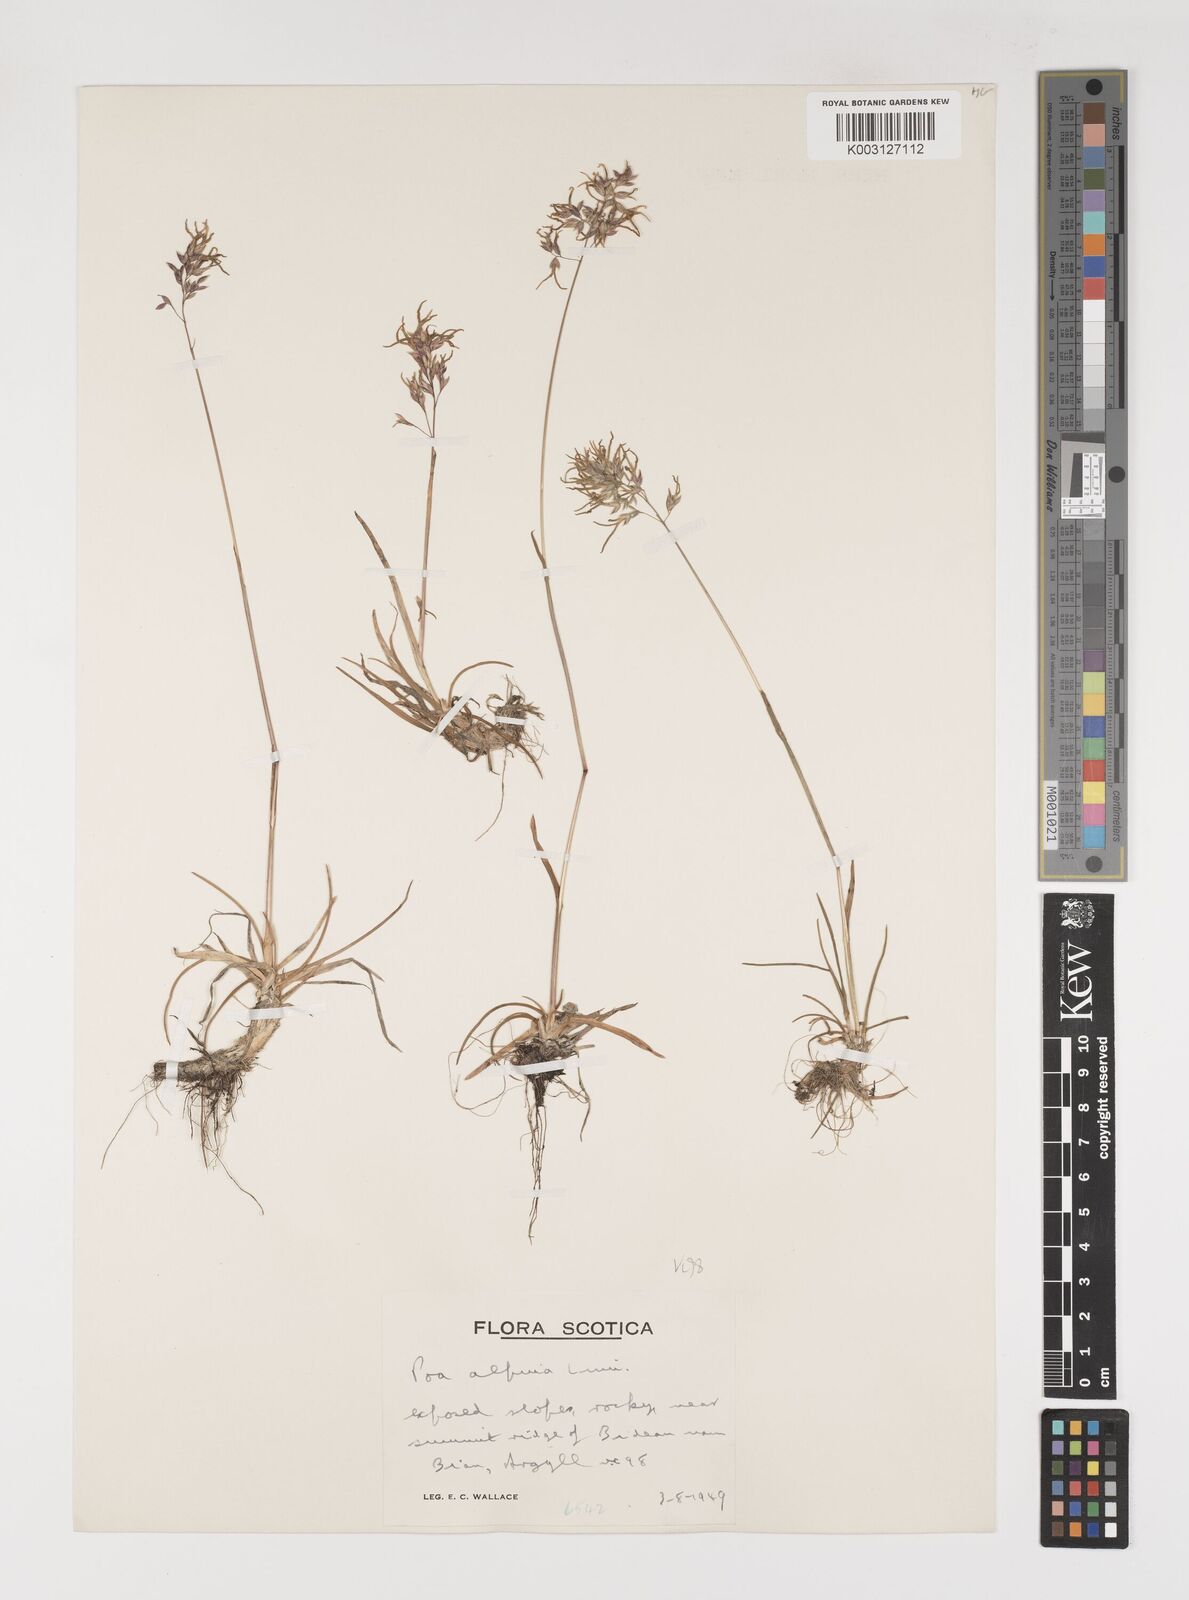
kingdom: Plantae
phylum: Tracheophyta
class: Liliopsida
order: Poales
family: Poaceae
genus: Poa
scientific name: Poa alpina
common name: Alpine bluegrass
